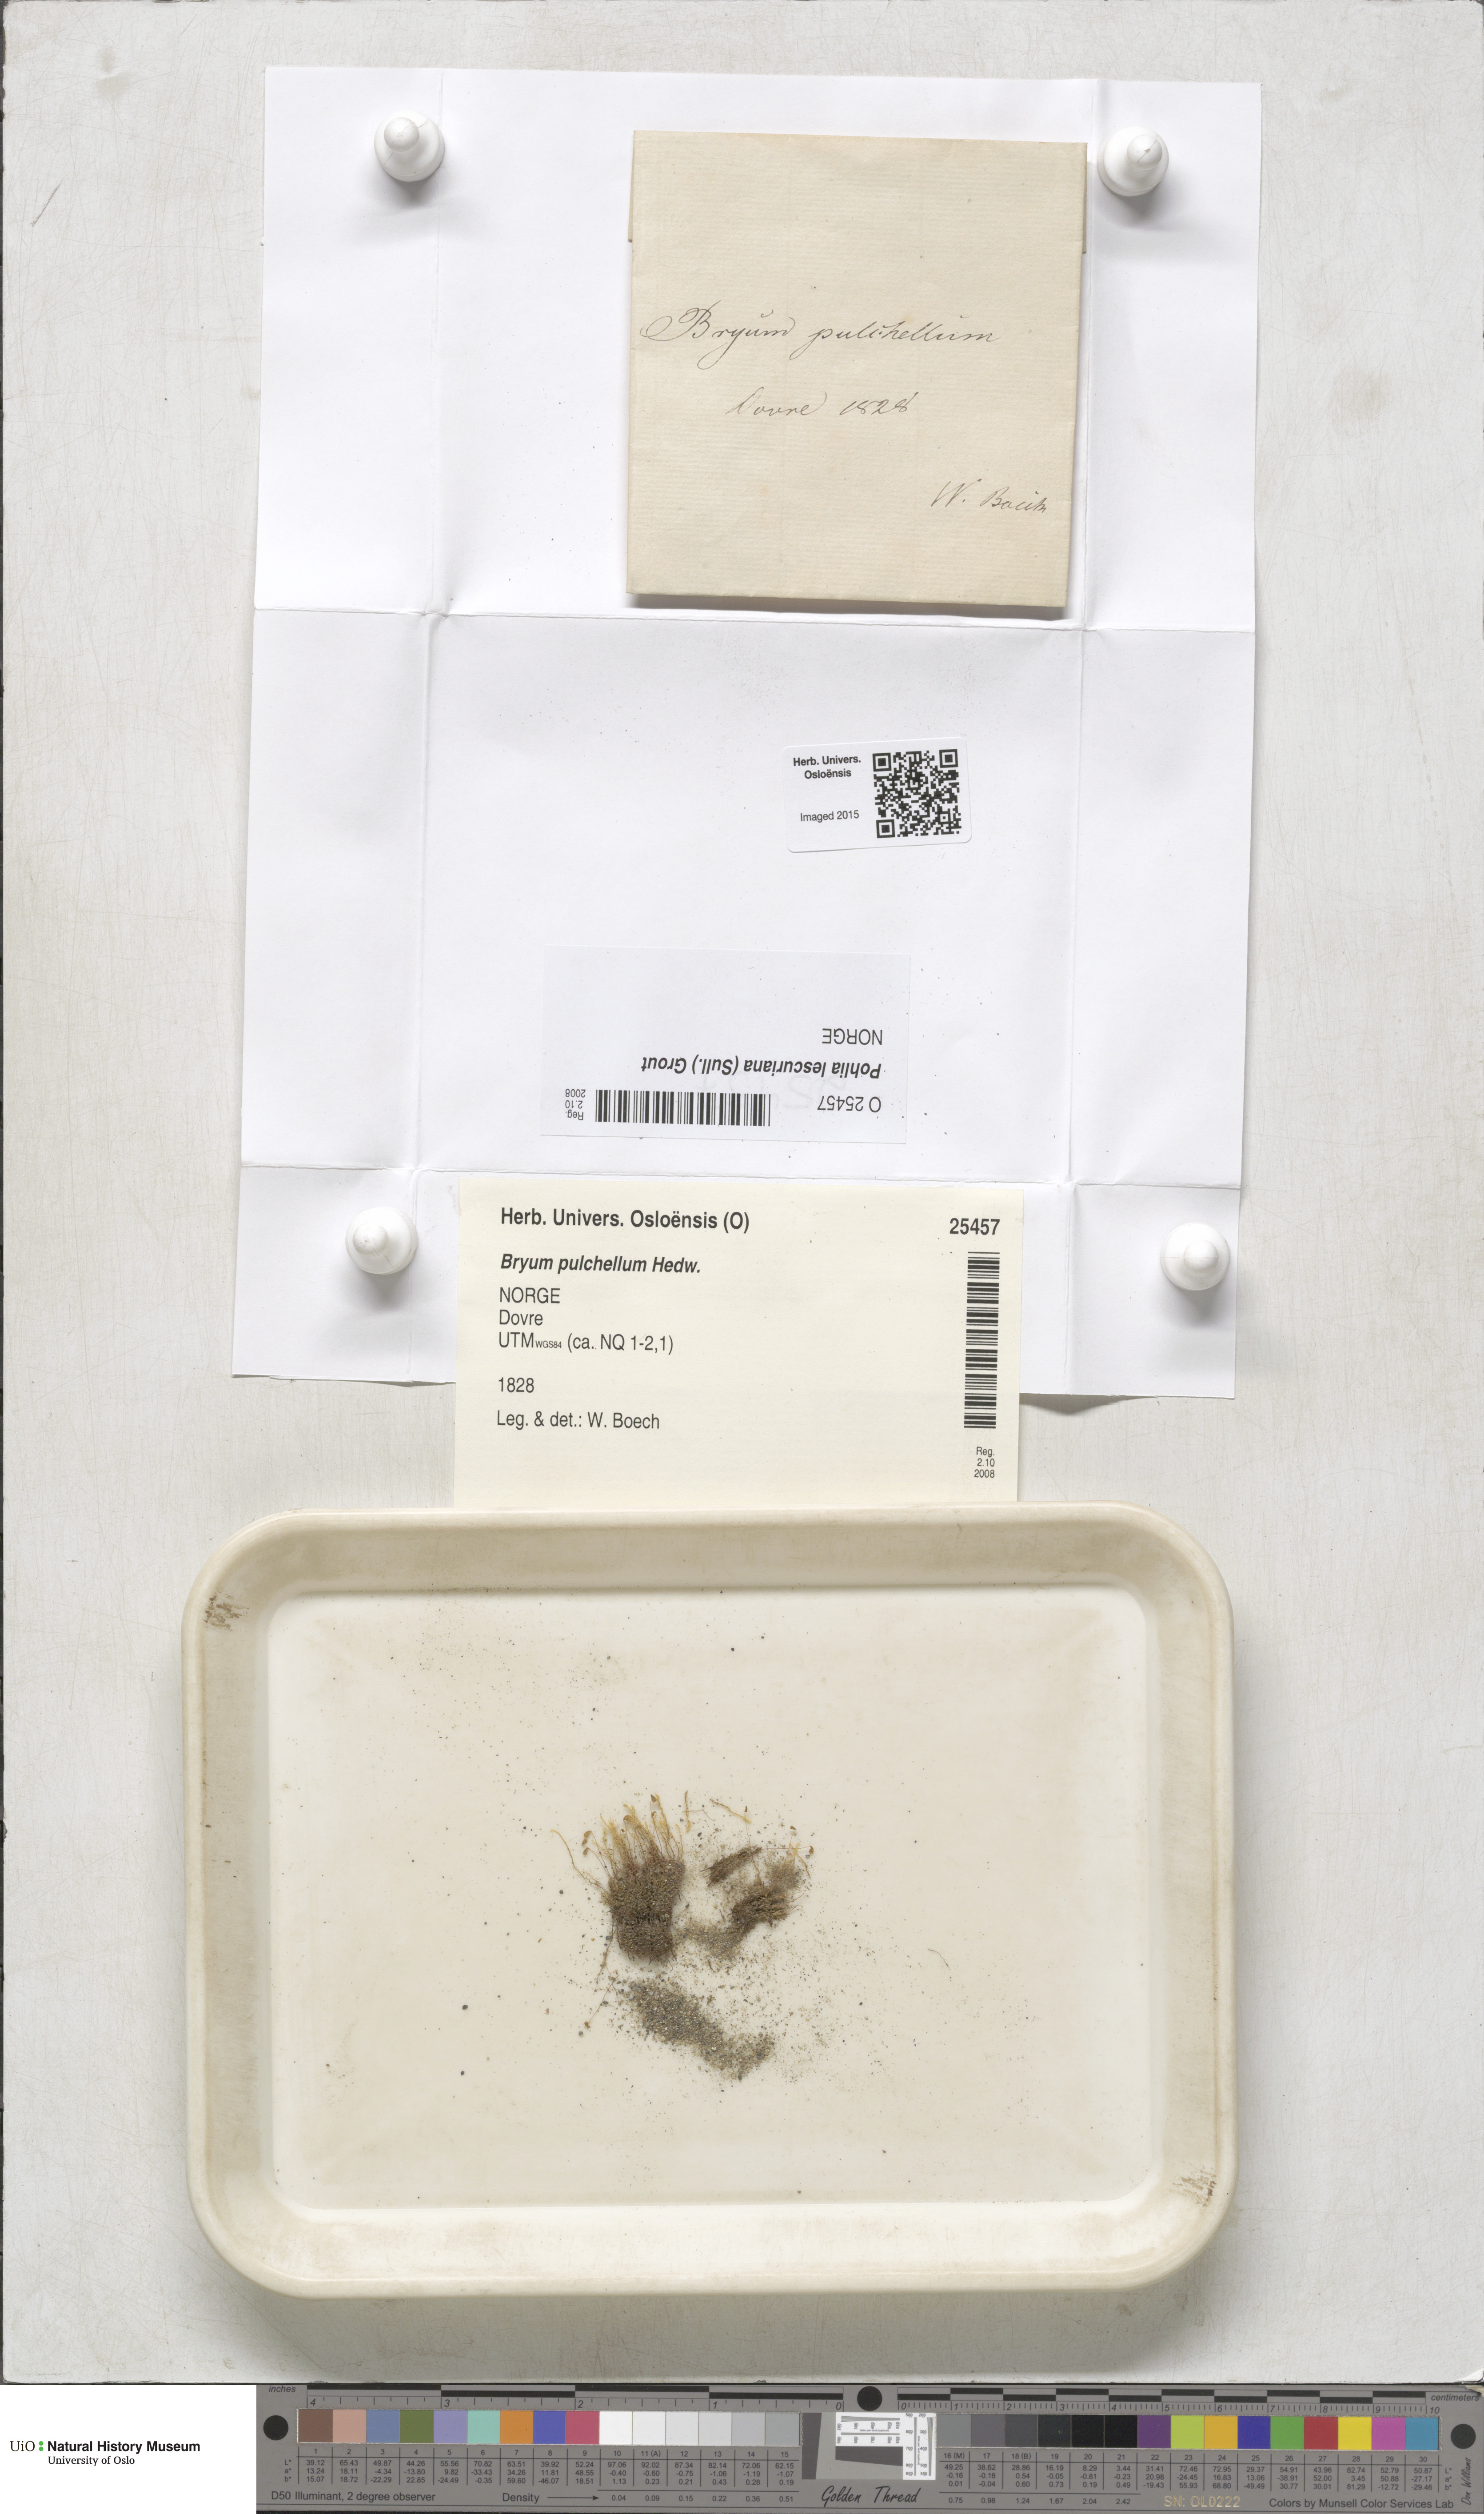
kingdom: Plantae
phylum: Bryophyta
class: Bryopsida
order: Bryales
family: Mniaceae
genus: Pohlia
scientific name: Pohlia lescuriana
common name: Pear-shaped nodding moss
